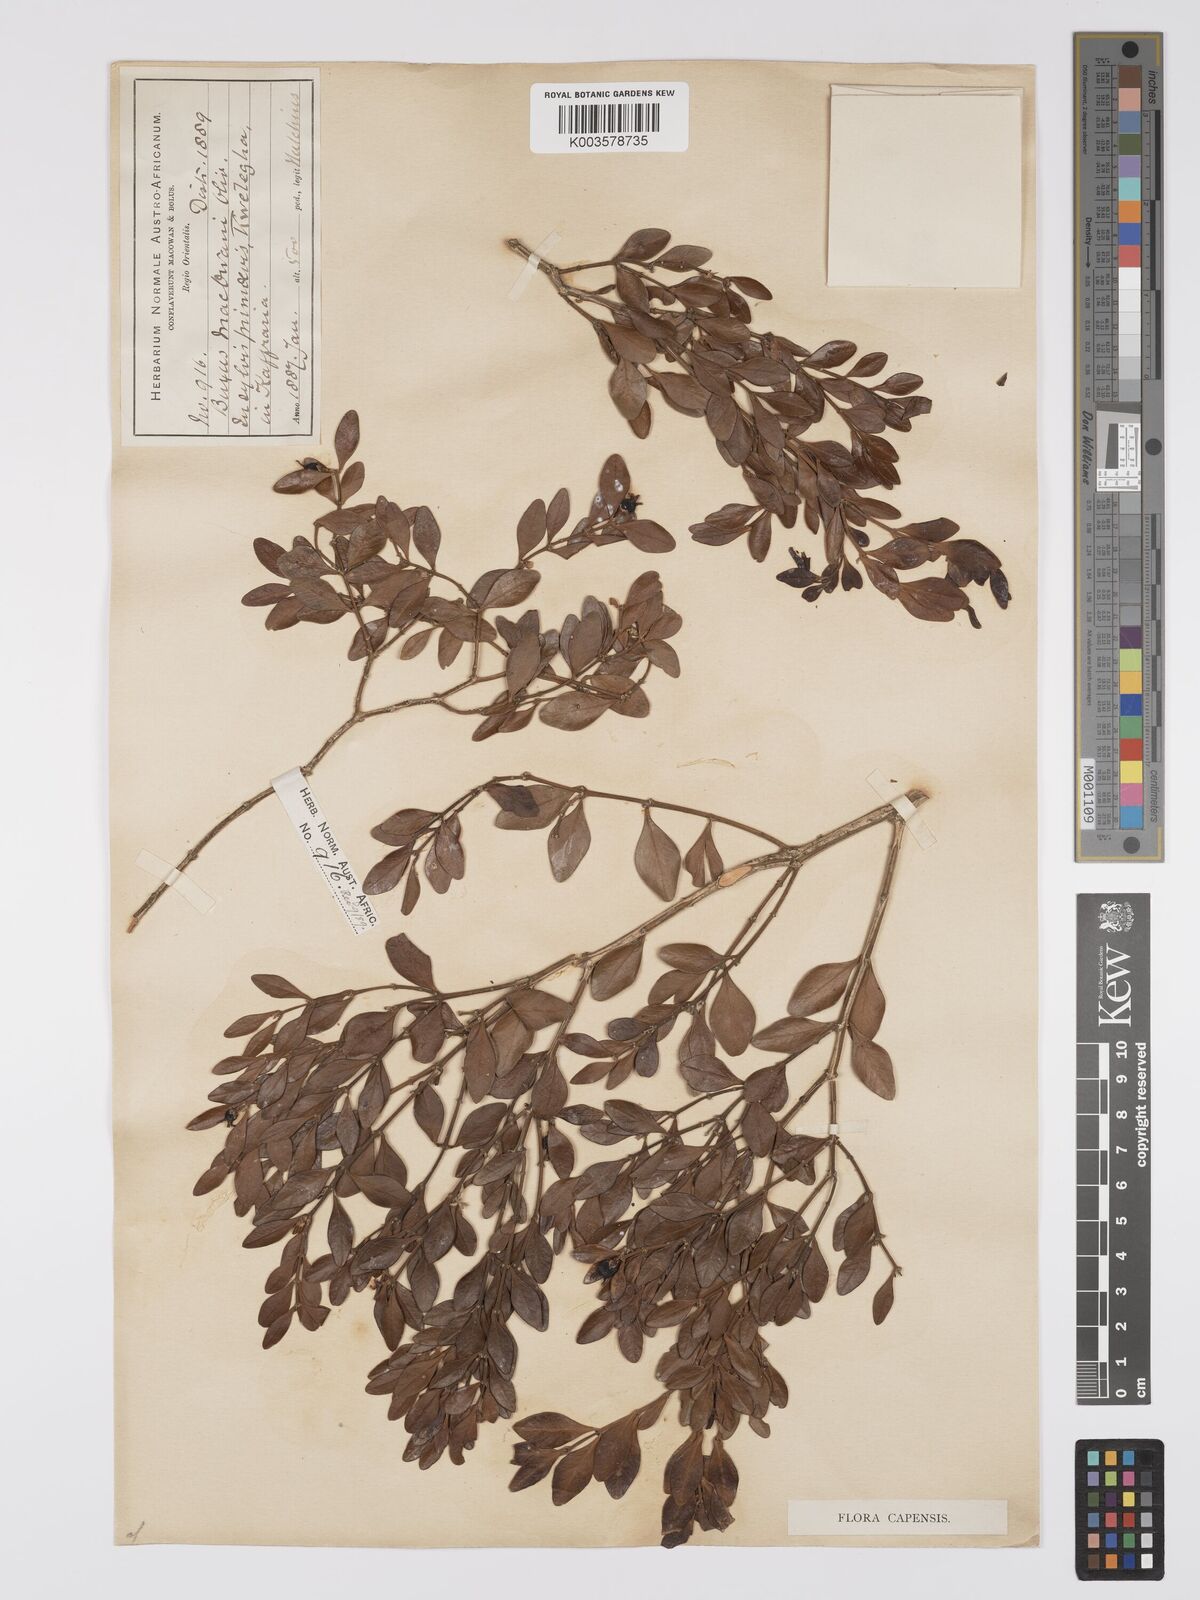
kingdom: Plantae
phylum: Tracheophyta
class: Magnoliopsida
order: Buxales
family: Buxaceae
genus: Buxus
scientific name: Buxus macowanii
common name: Cape box
